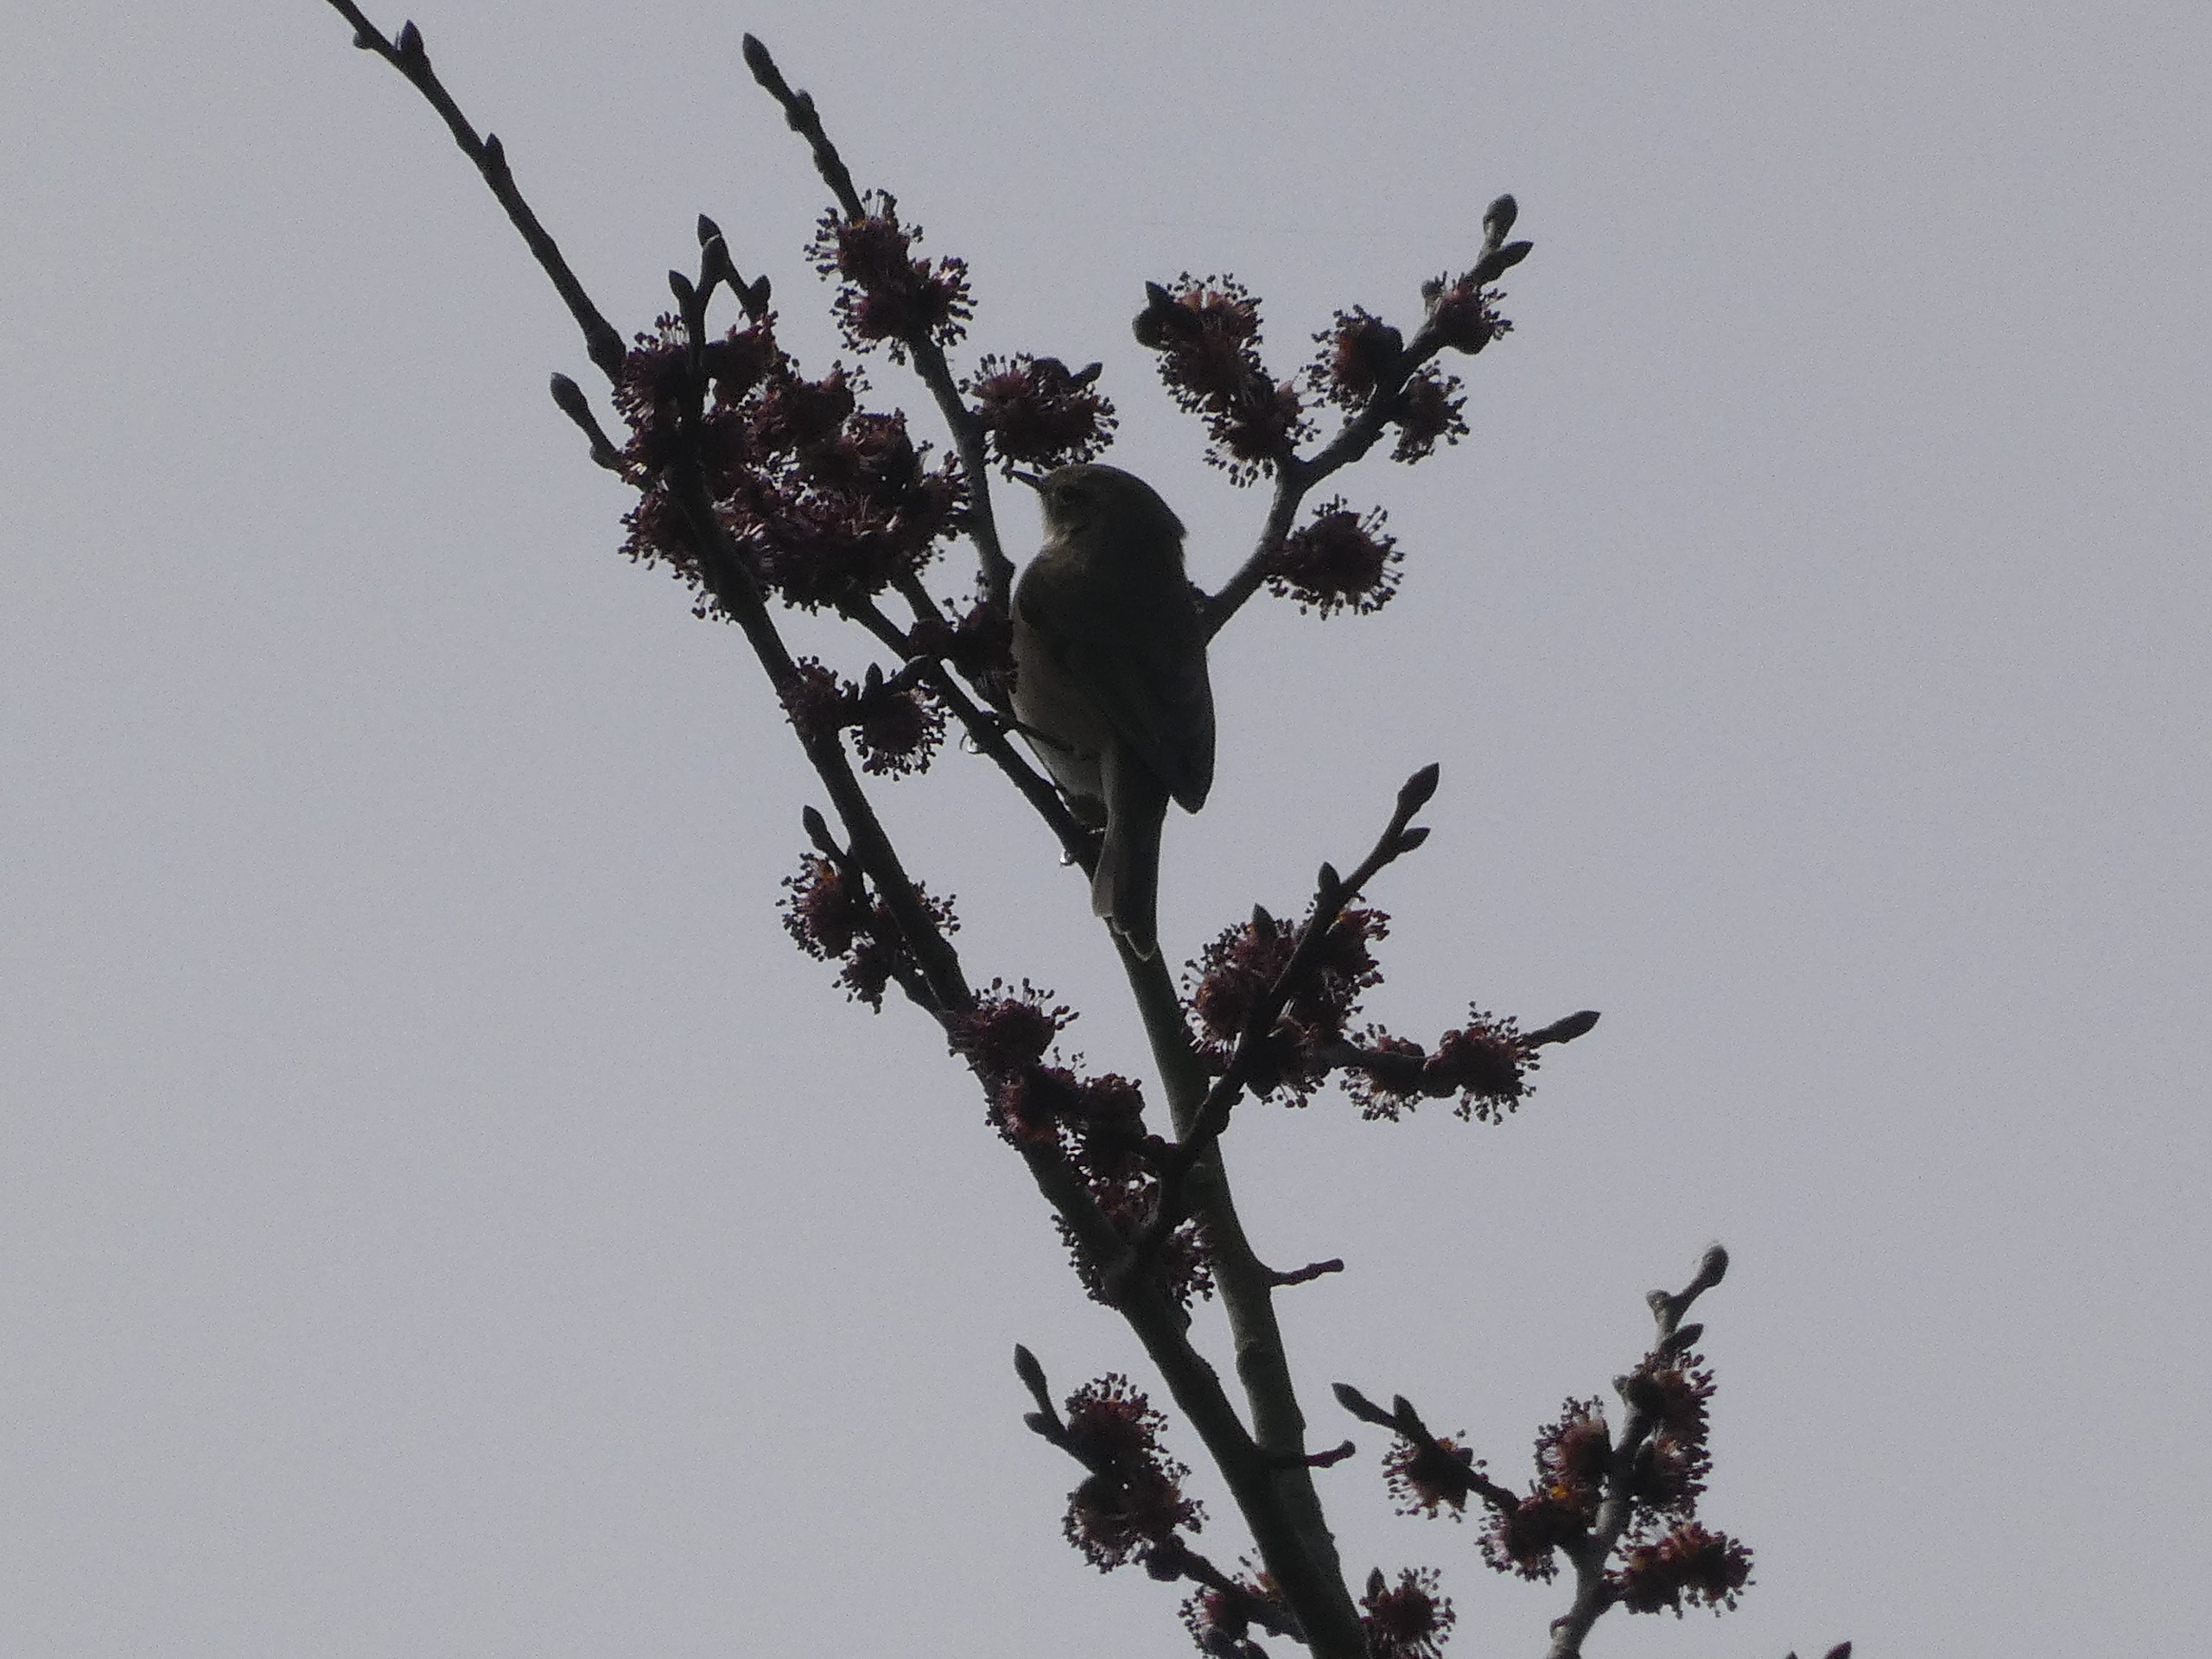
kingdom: Animalia
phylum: Chordata
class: Aves
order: Passeriformes
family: Phylloscopidae
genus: Phylloscopus
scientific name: Phylloscopus collybita
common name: Gransanger
